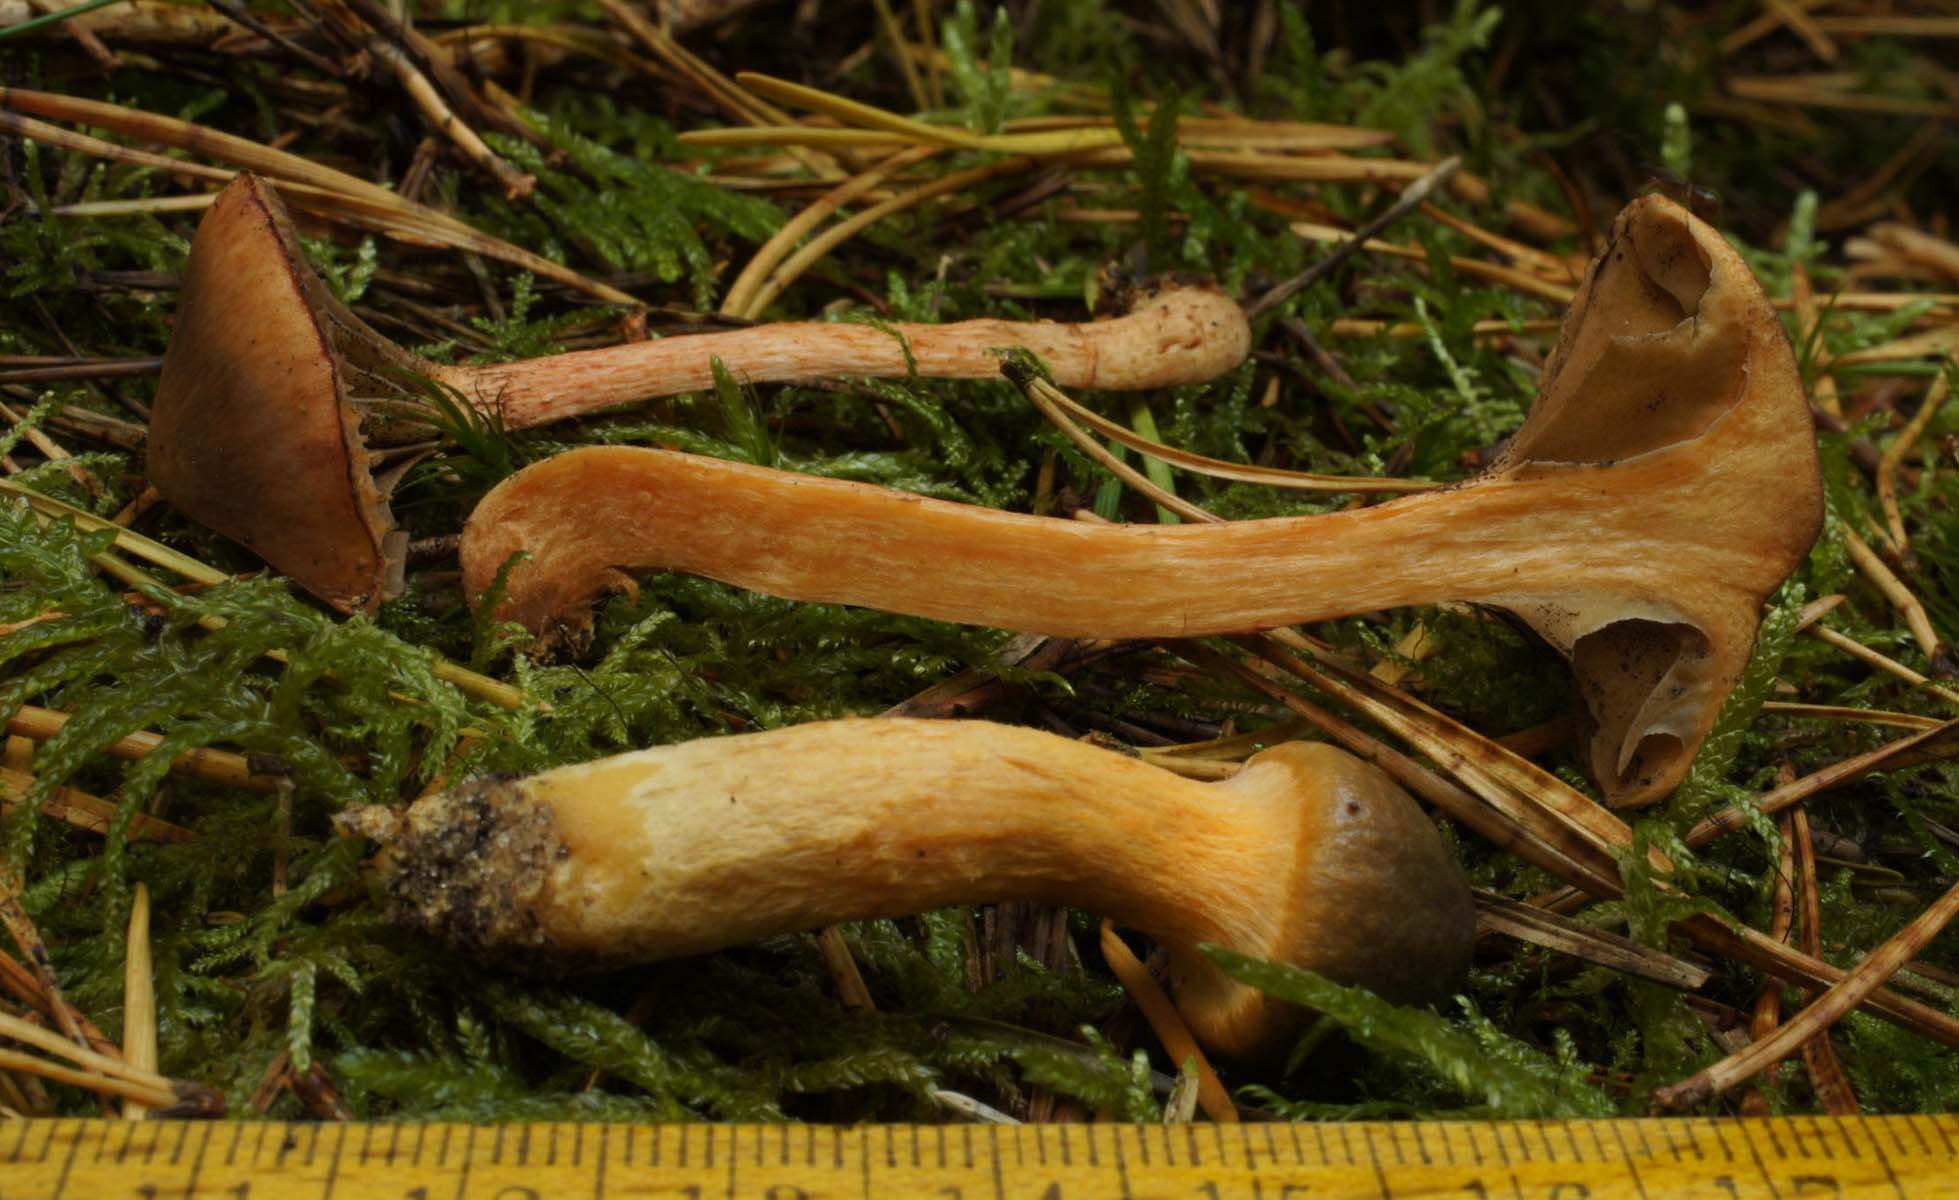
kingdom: Fungi
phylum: Basidiomycota
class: Agaricomycetes
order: Boletales
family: Gomphidiaceae
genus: Chroogomphus
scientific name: Chroogomphus rutilus
